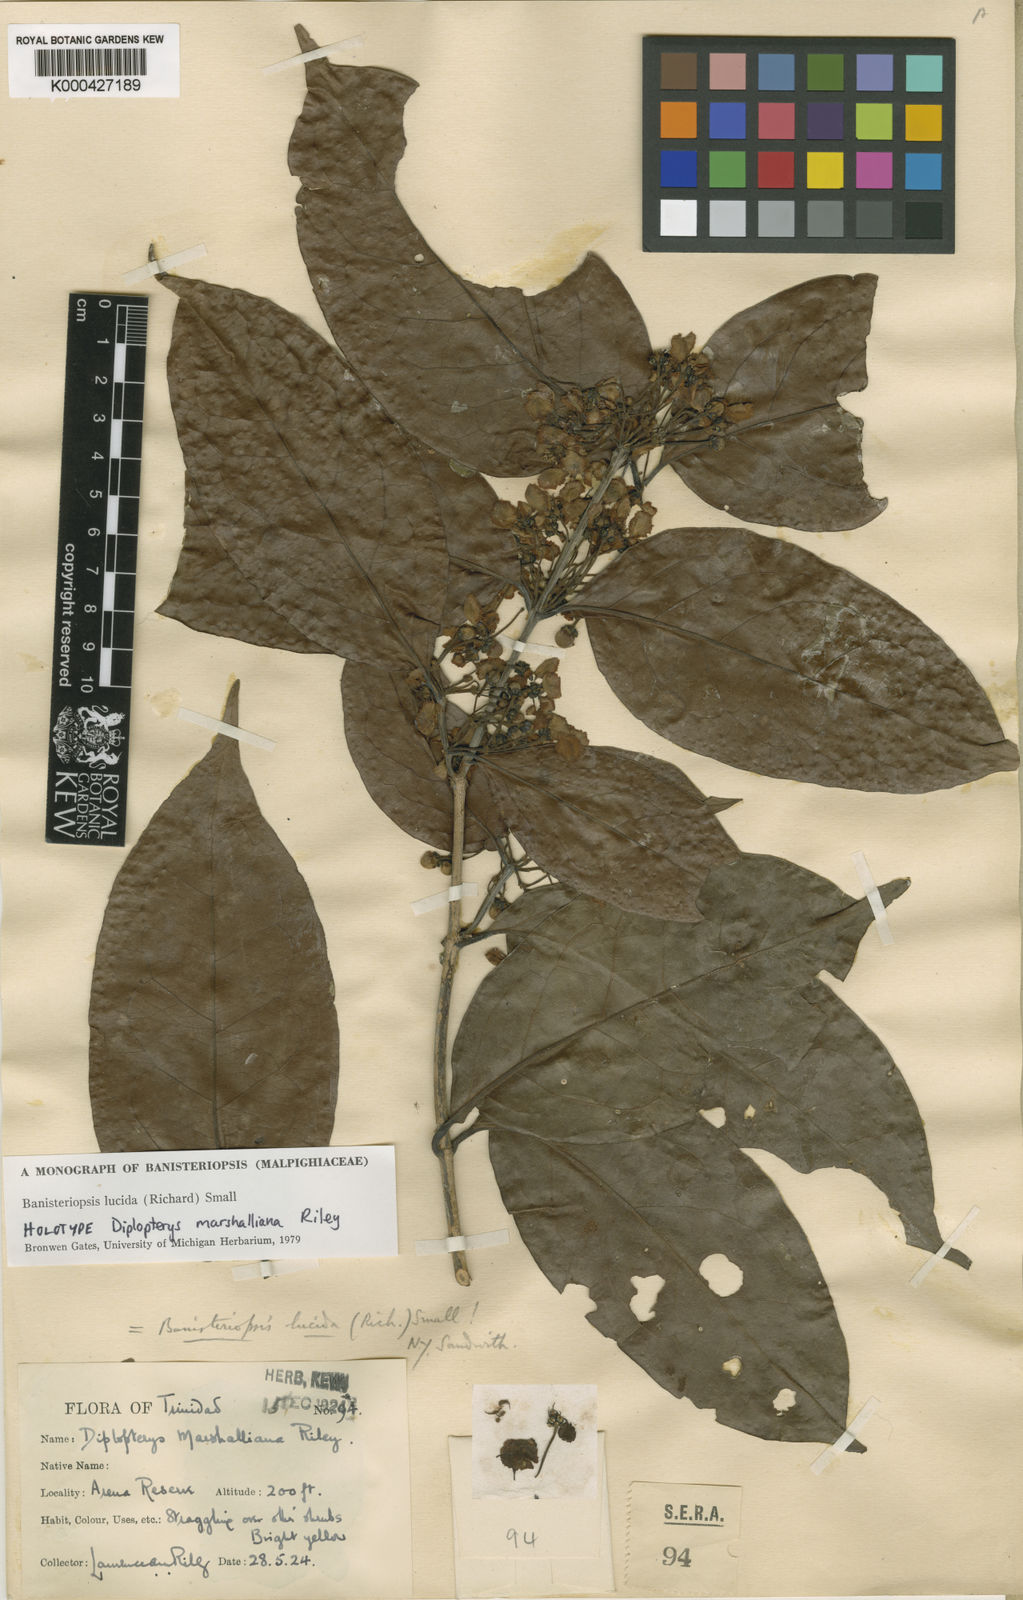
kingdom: Plantae
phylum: Tracheophyta
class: Magnoliopsida
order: Malpighiales
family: Malpighiaceae
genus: Diplopterys
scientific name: Diplopterys lucida
